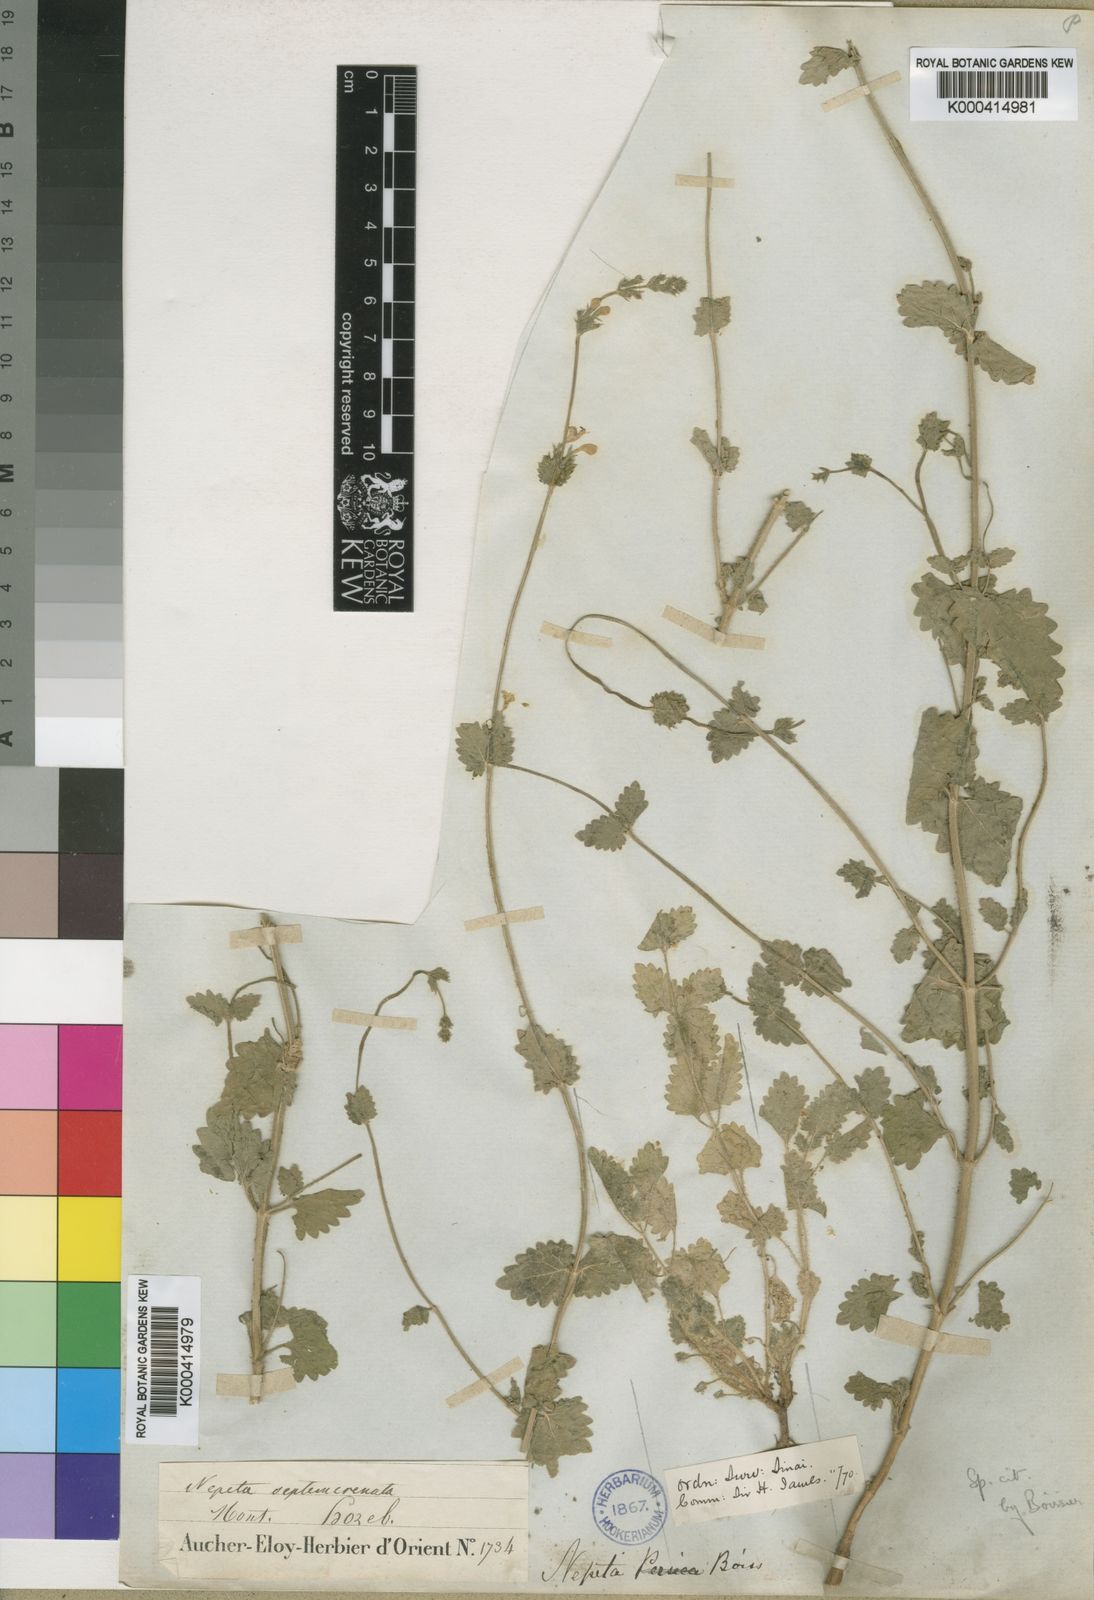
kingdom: Plantae
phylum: Tracheophyta
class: Magnoliopsida
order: Lamiales
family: Lamiaceae
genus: Nepeta
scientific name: Nepeta septemcrenata
